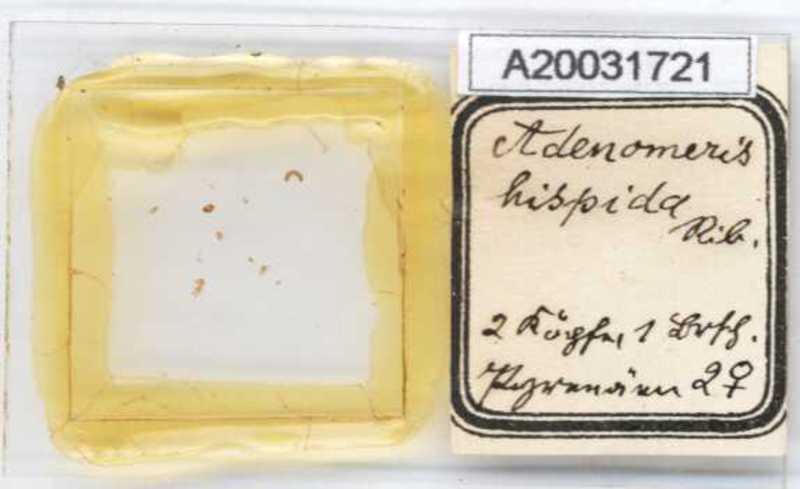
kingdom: Animalia
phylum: Arthropoda
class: Diplopoda
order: Glomerida
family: Glomeridae
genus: Adenomeris
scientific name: Adenomeris hispida
